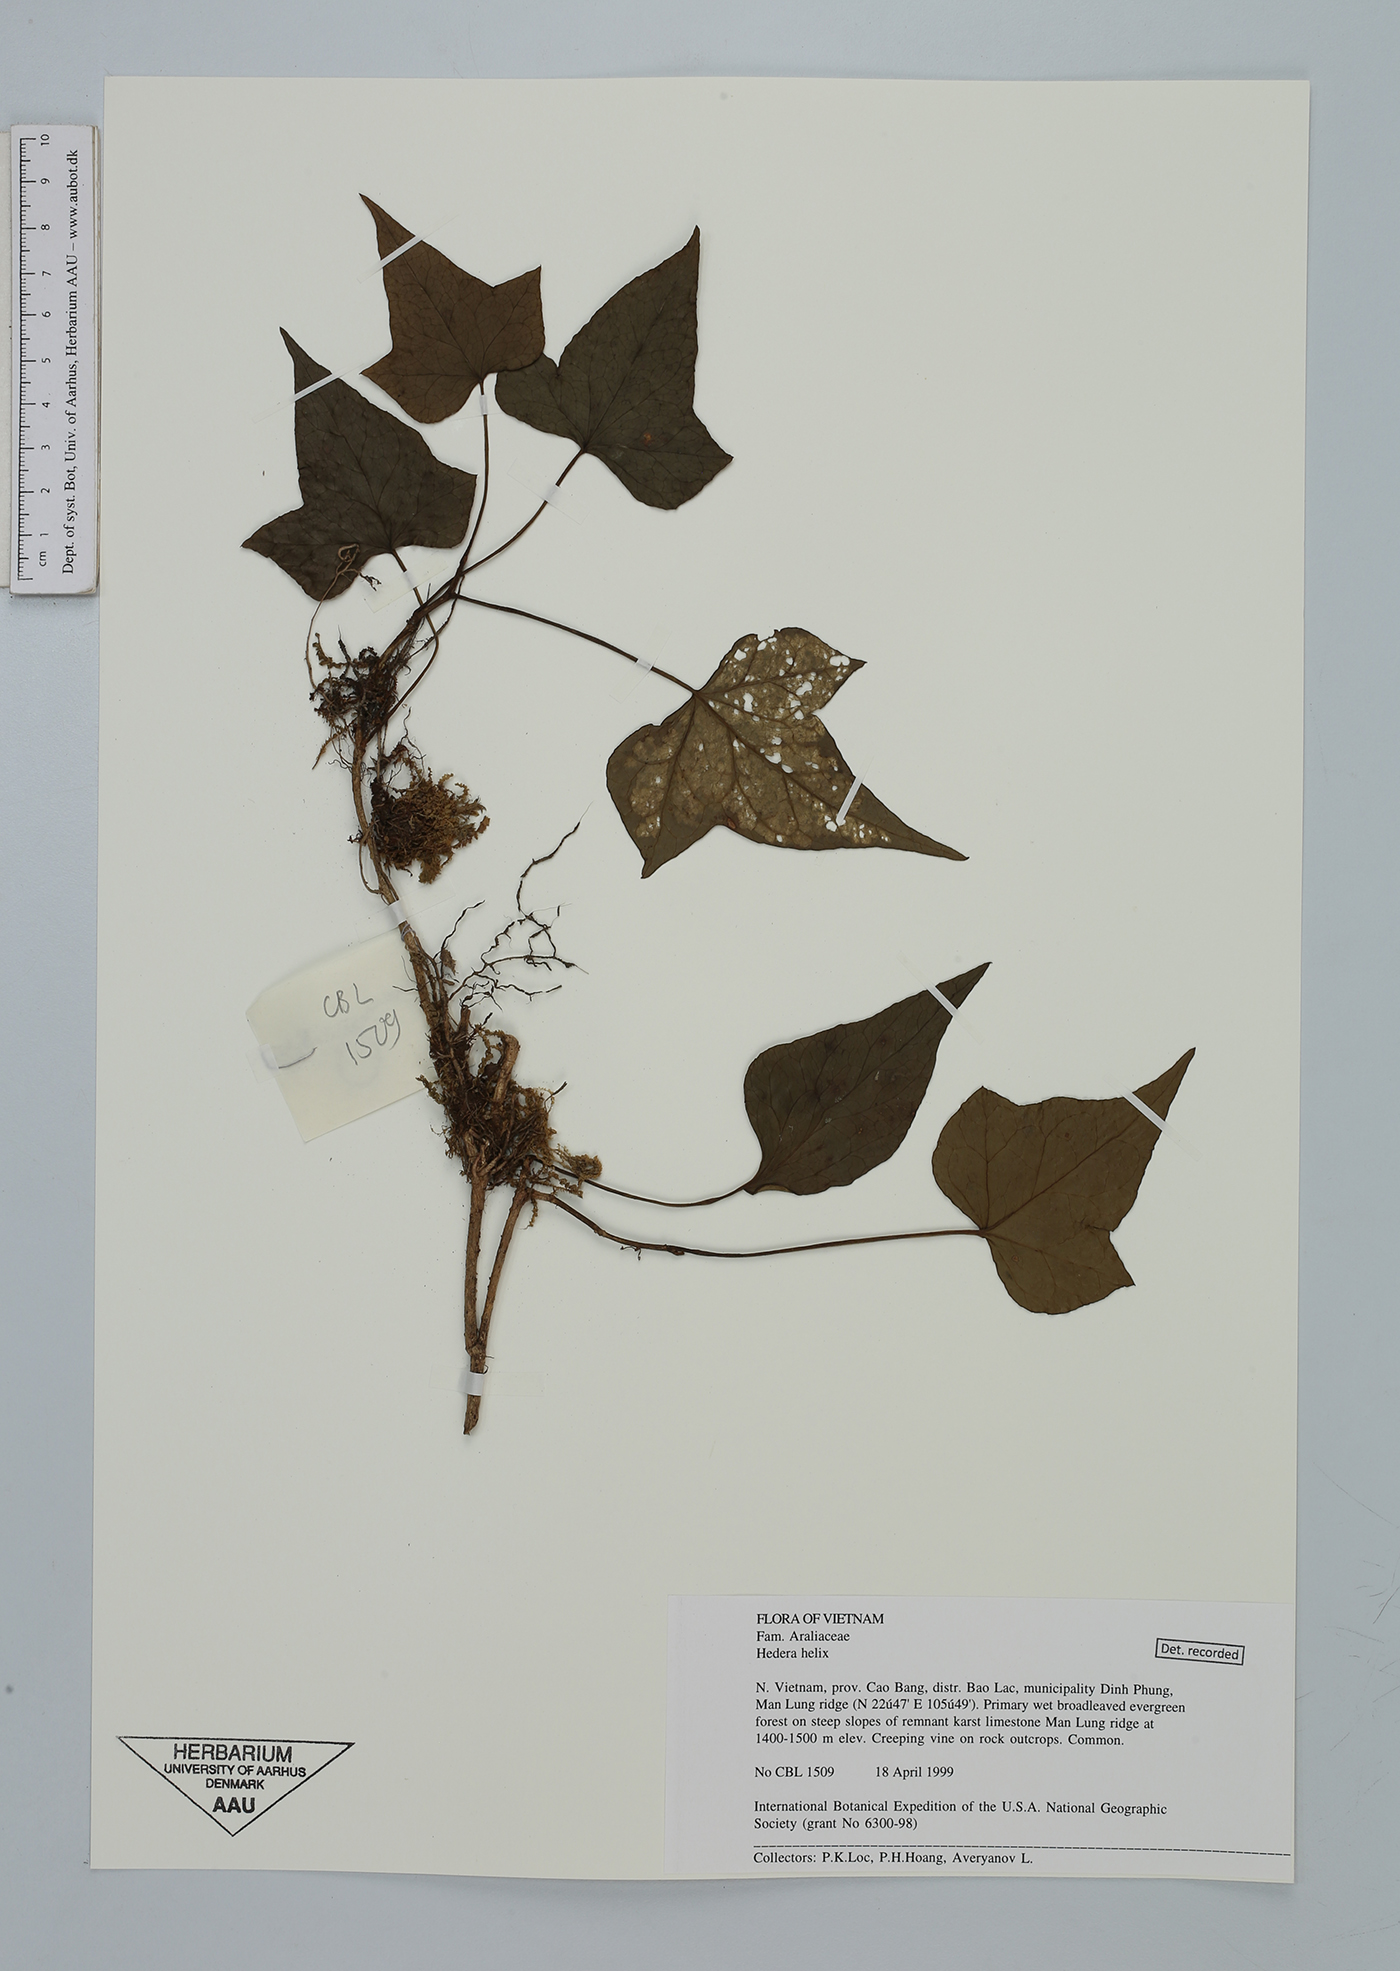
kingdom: Plantae
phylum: Tracheophyta
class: Magnoliopsida
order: Apiales
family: Araliaceae
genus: Hedera
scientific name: Hedera helix
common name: Ivy
